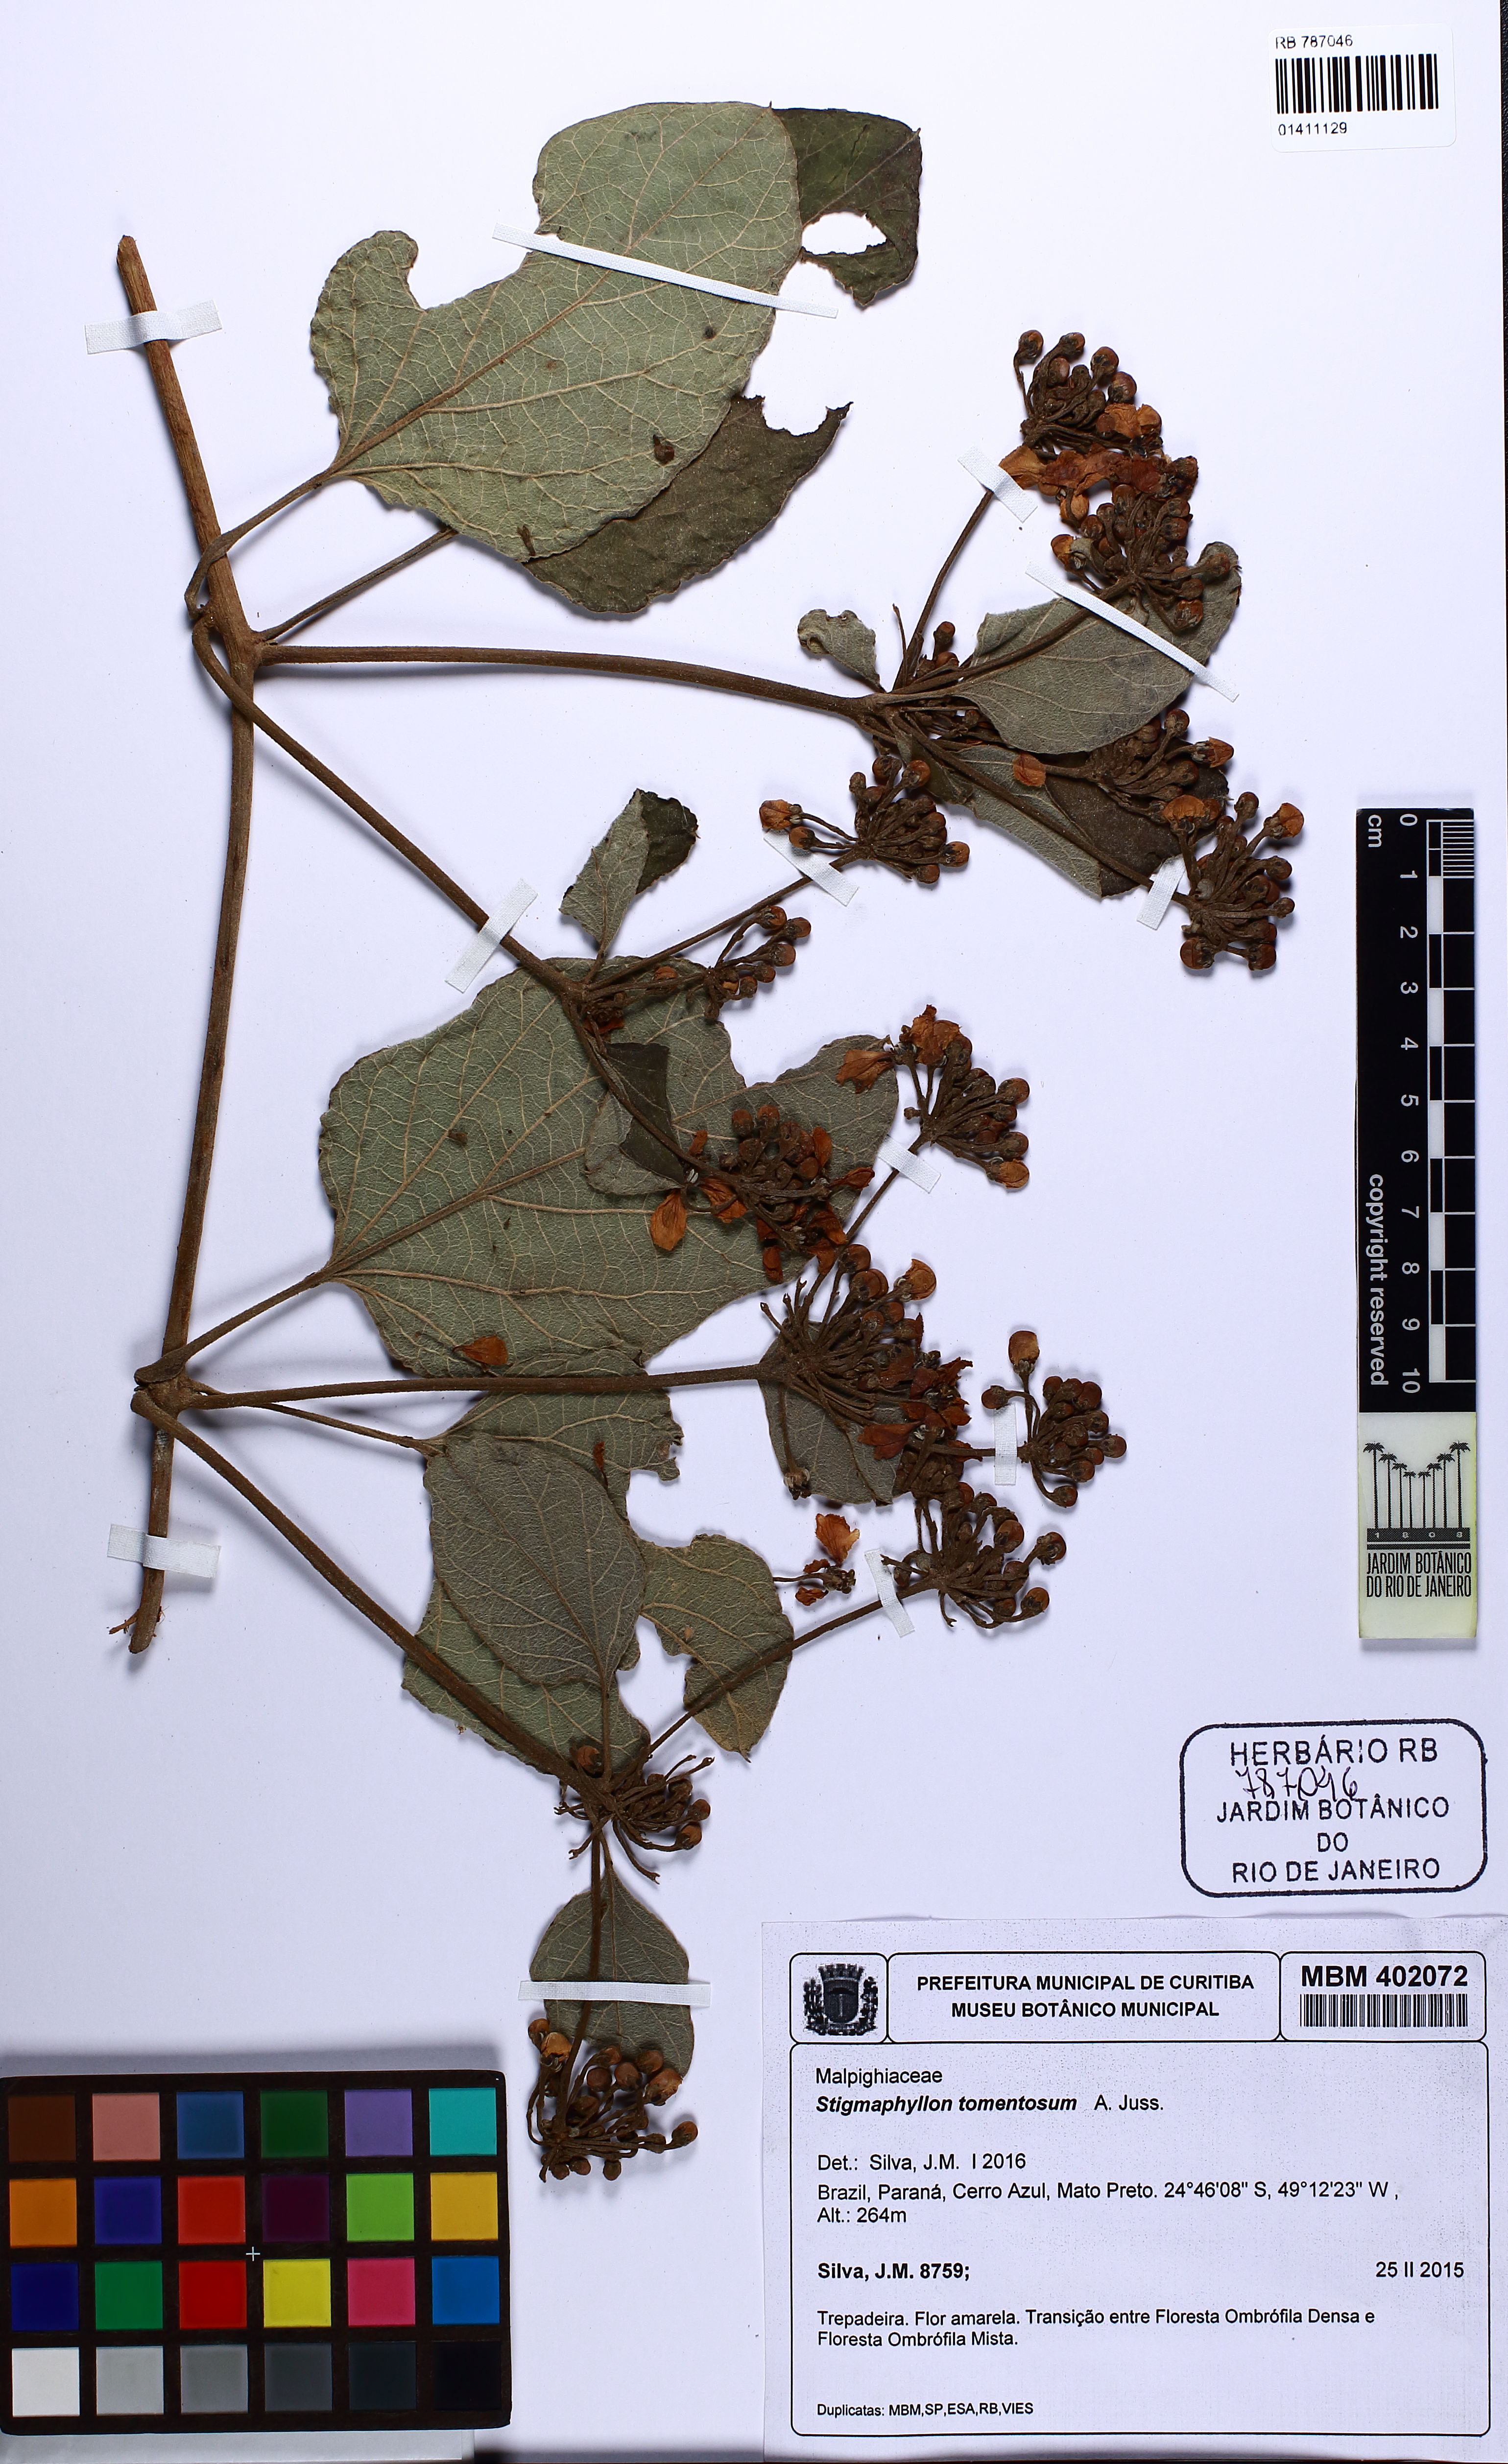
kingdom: Plantae
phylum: Tracheophyta
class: Magnoliopsida
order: Malpighiales
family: Malpighiaceae
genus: Stigmaphyllon
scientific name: Stigmaphyllon tomentosum
